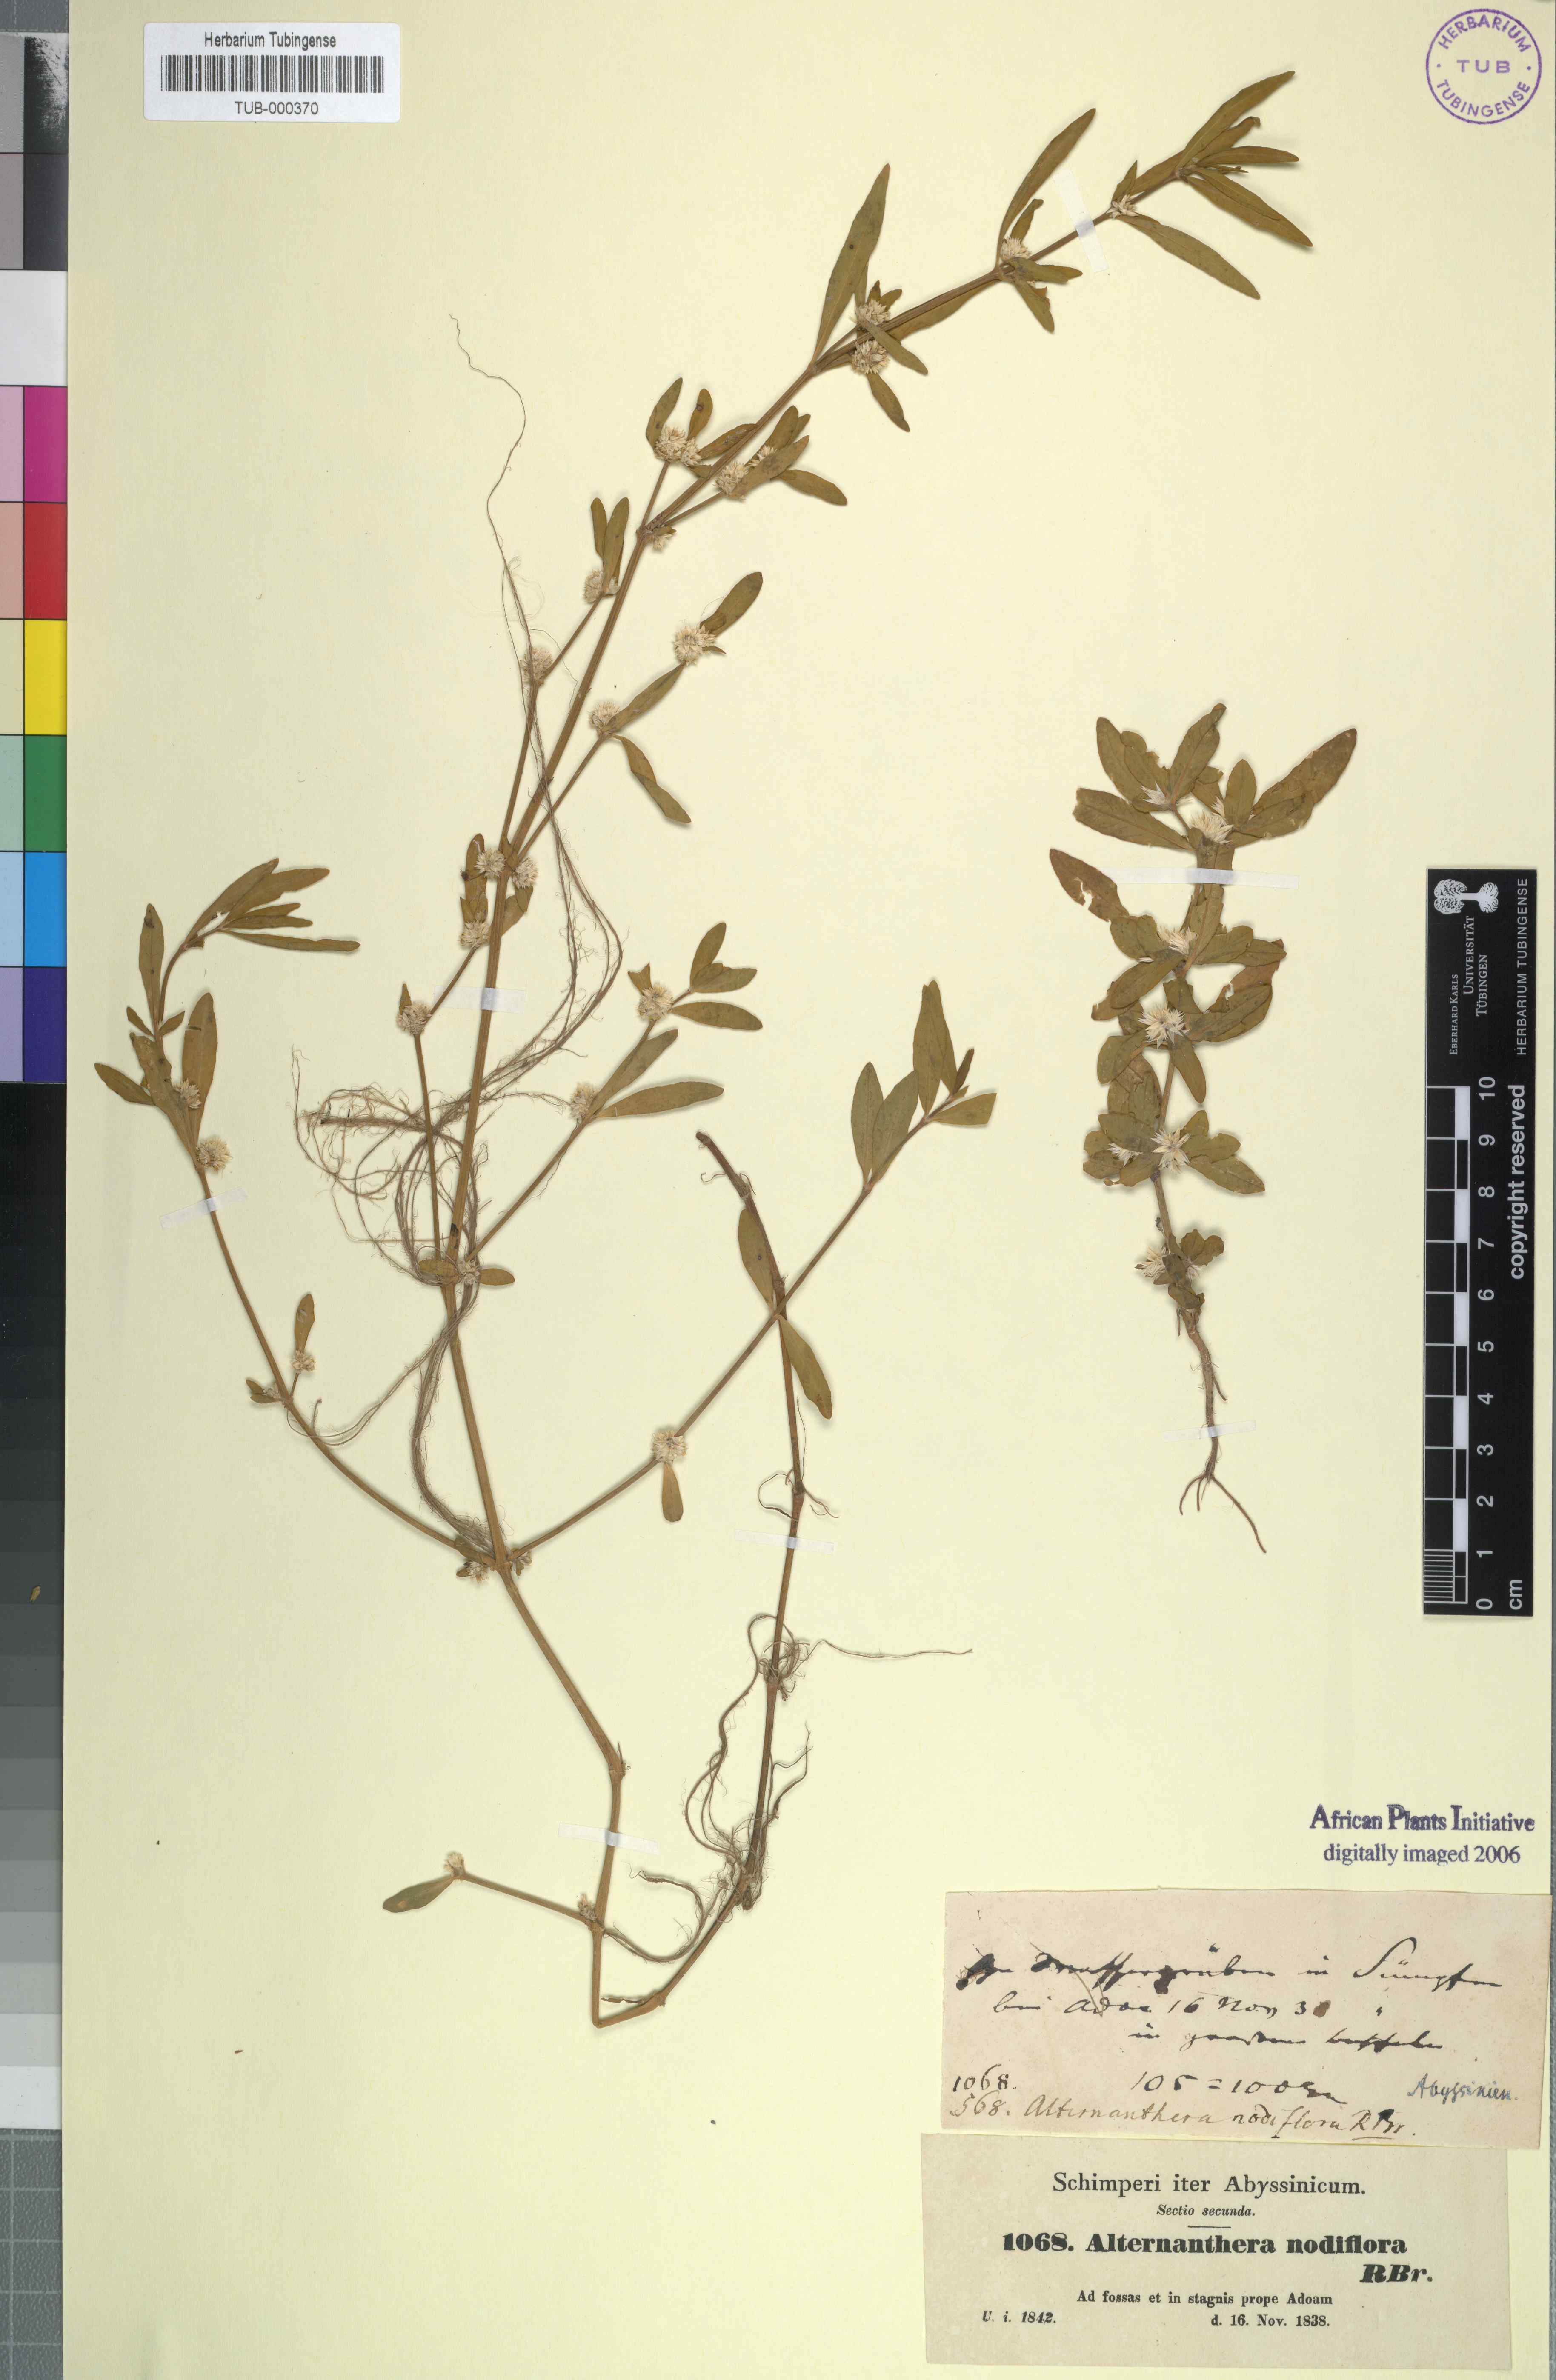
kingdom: Plantae
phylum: Tracheophyta
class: Magnoliopsida
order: Caryophyllales
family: Amaranthaceae
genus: Alternanthera
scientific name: Alternanthera sessilis
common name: Sessile joyweed
